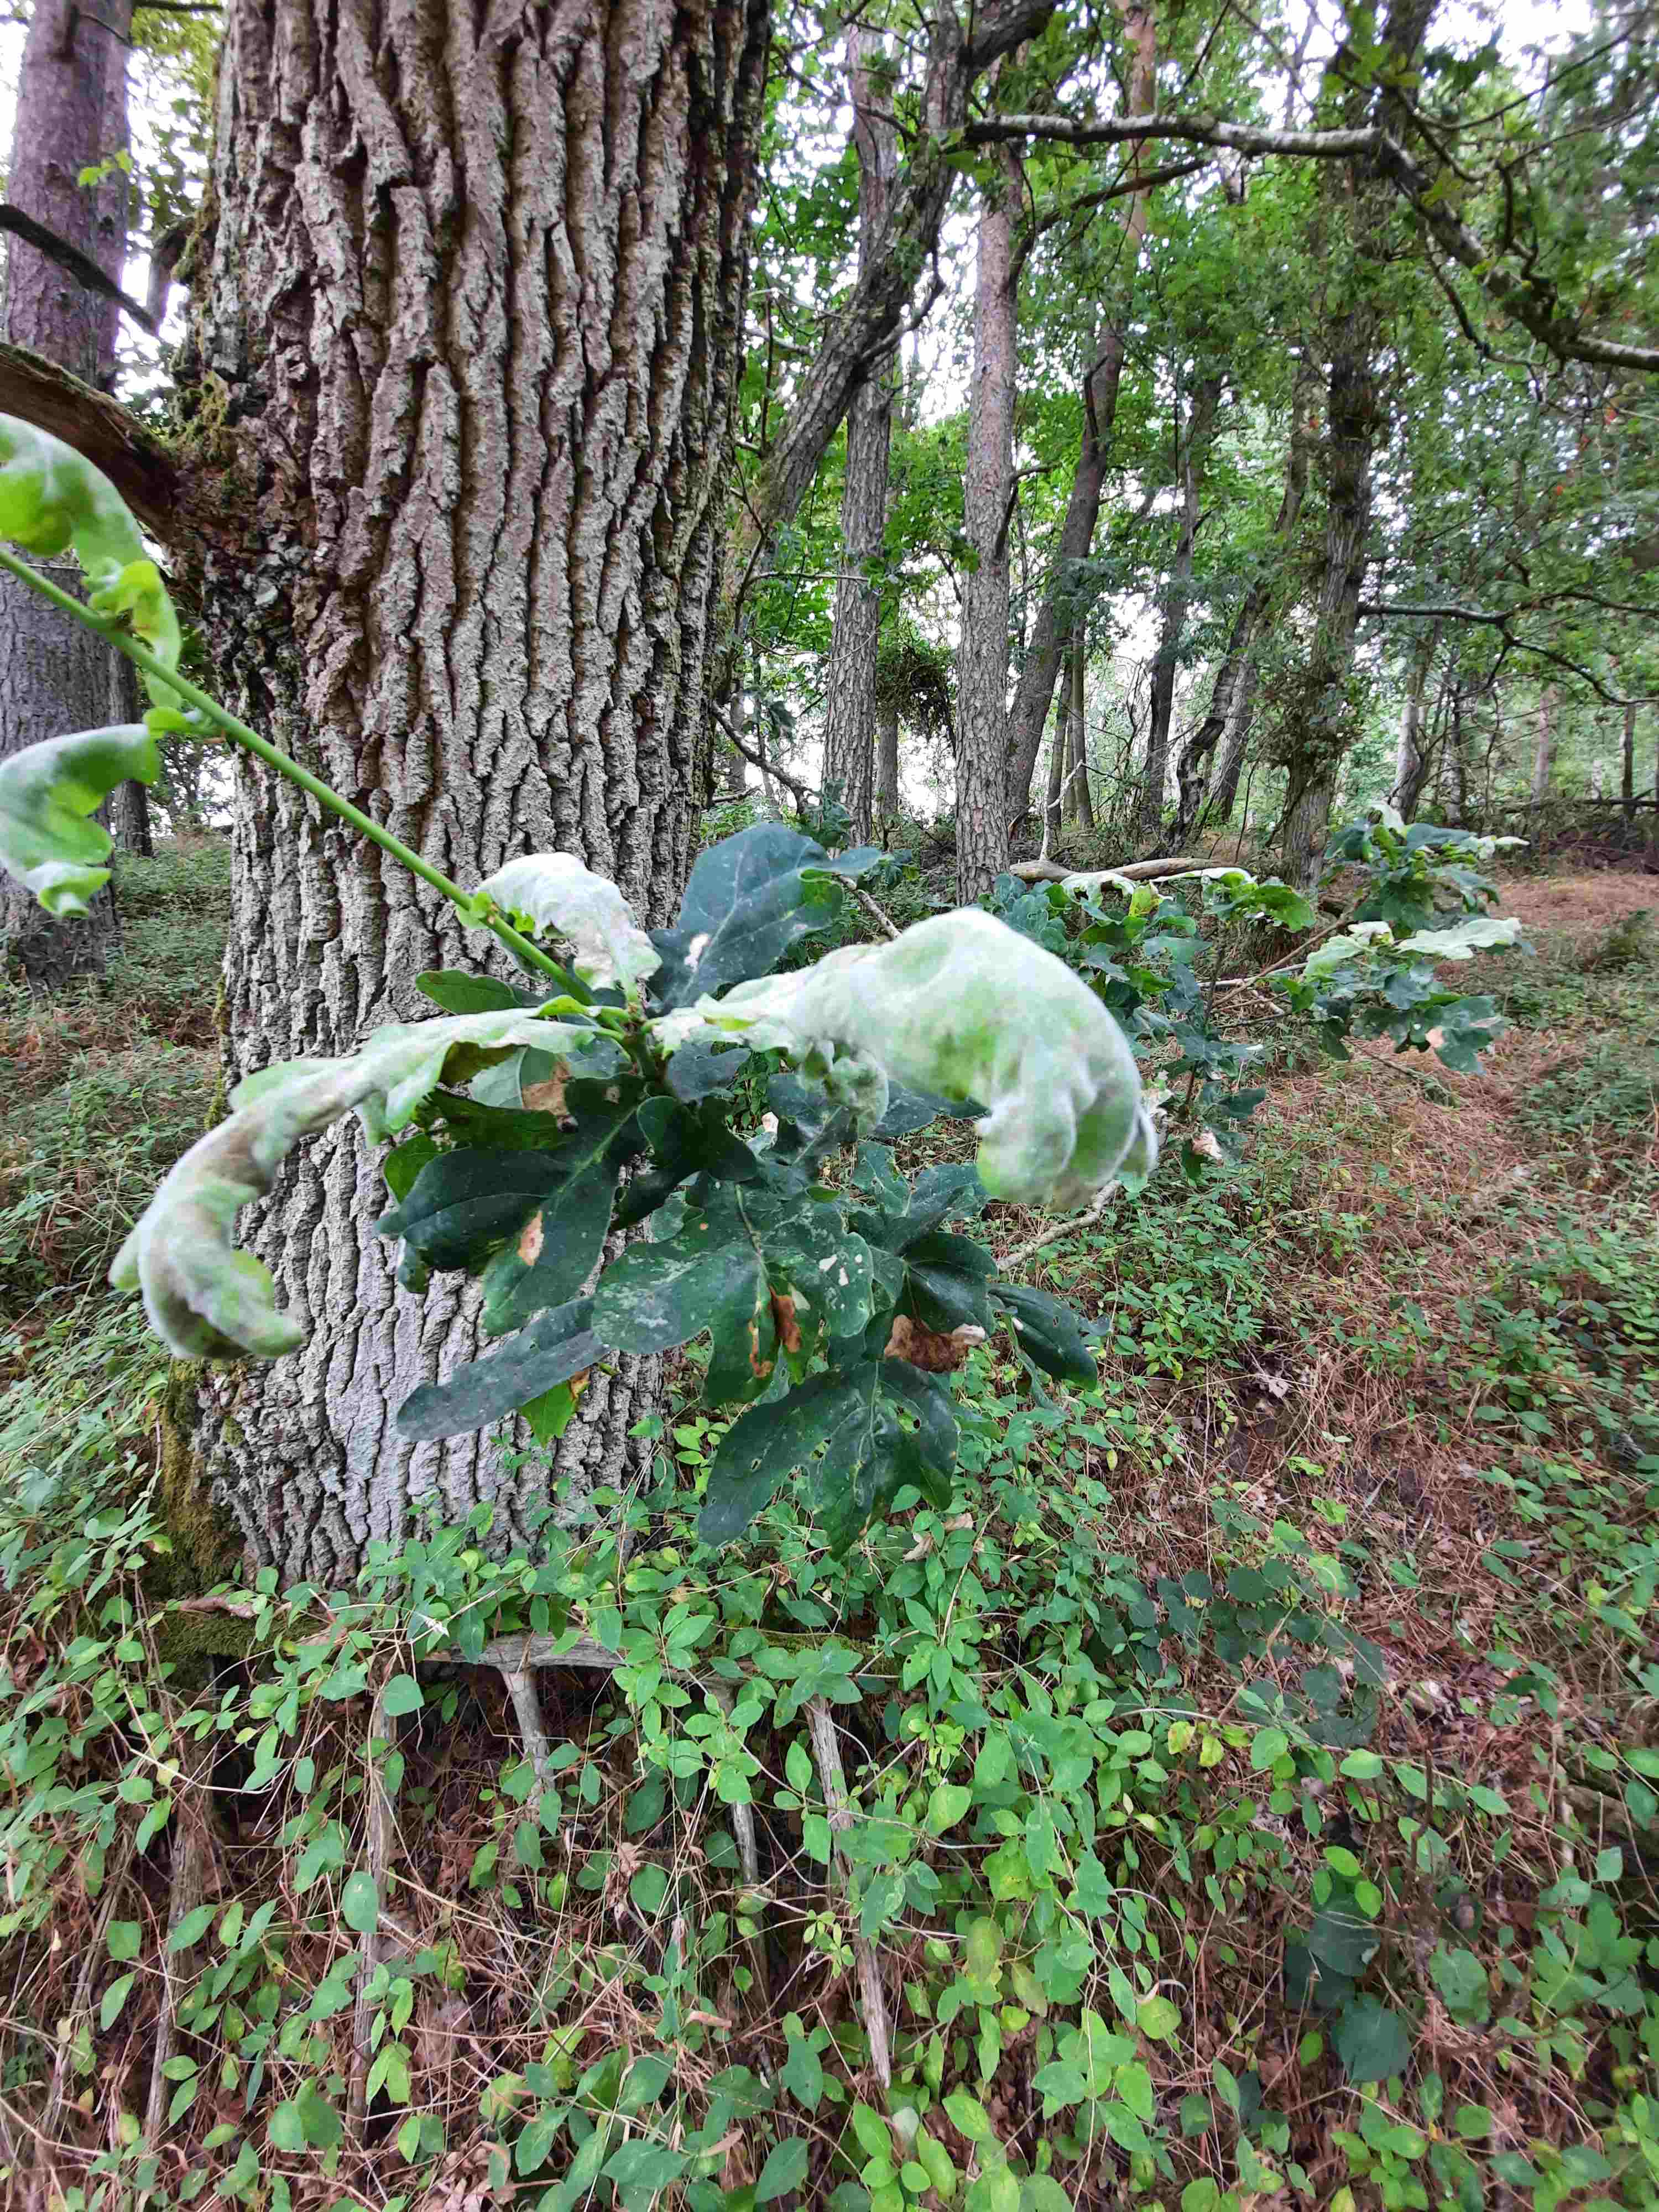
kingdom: Fungi
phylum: Ascomycota
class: Leotiomycetes
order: Helotiales
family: Erysiphaceae
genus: Erysiphe
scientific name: Erysiphe alphitoides
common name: ege-meldug
